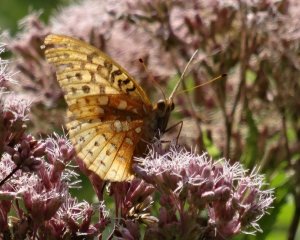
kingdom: Animalia
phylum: Arthropoda
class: Insecta
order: Lepidoptera
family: Nymphalidae
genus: Speyeria
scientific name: Speyeria cybele
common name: Great Spangled Fritillary
